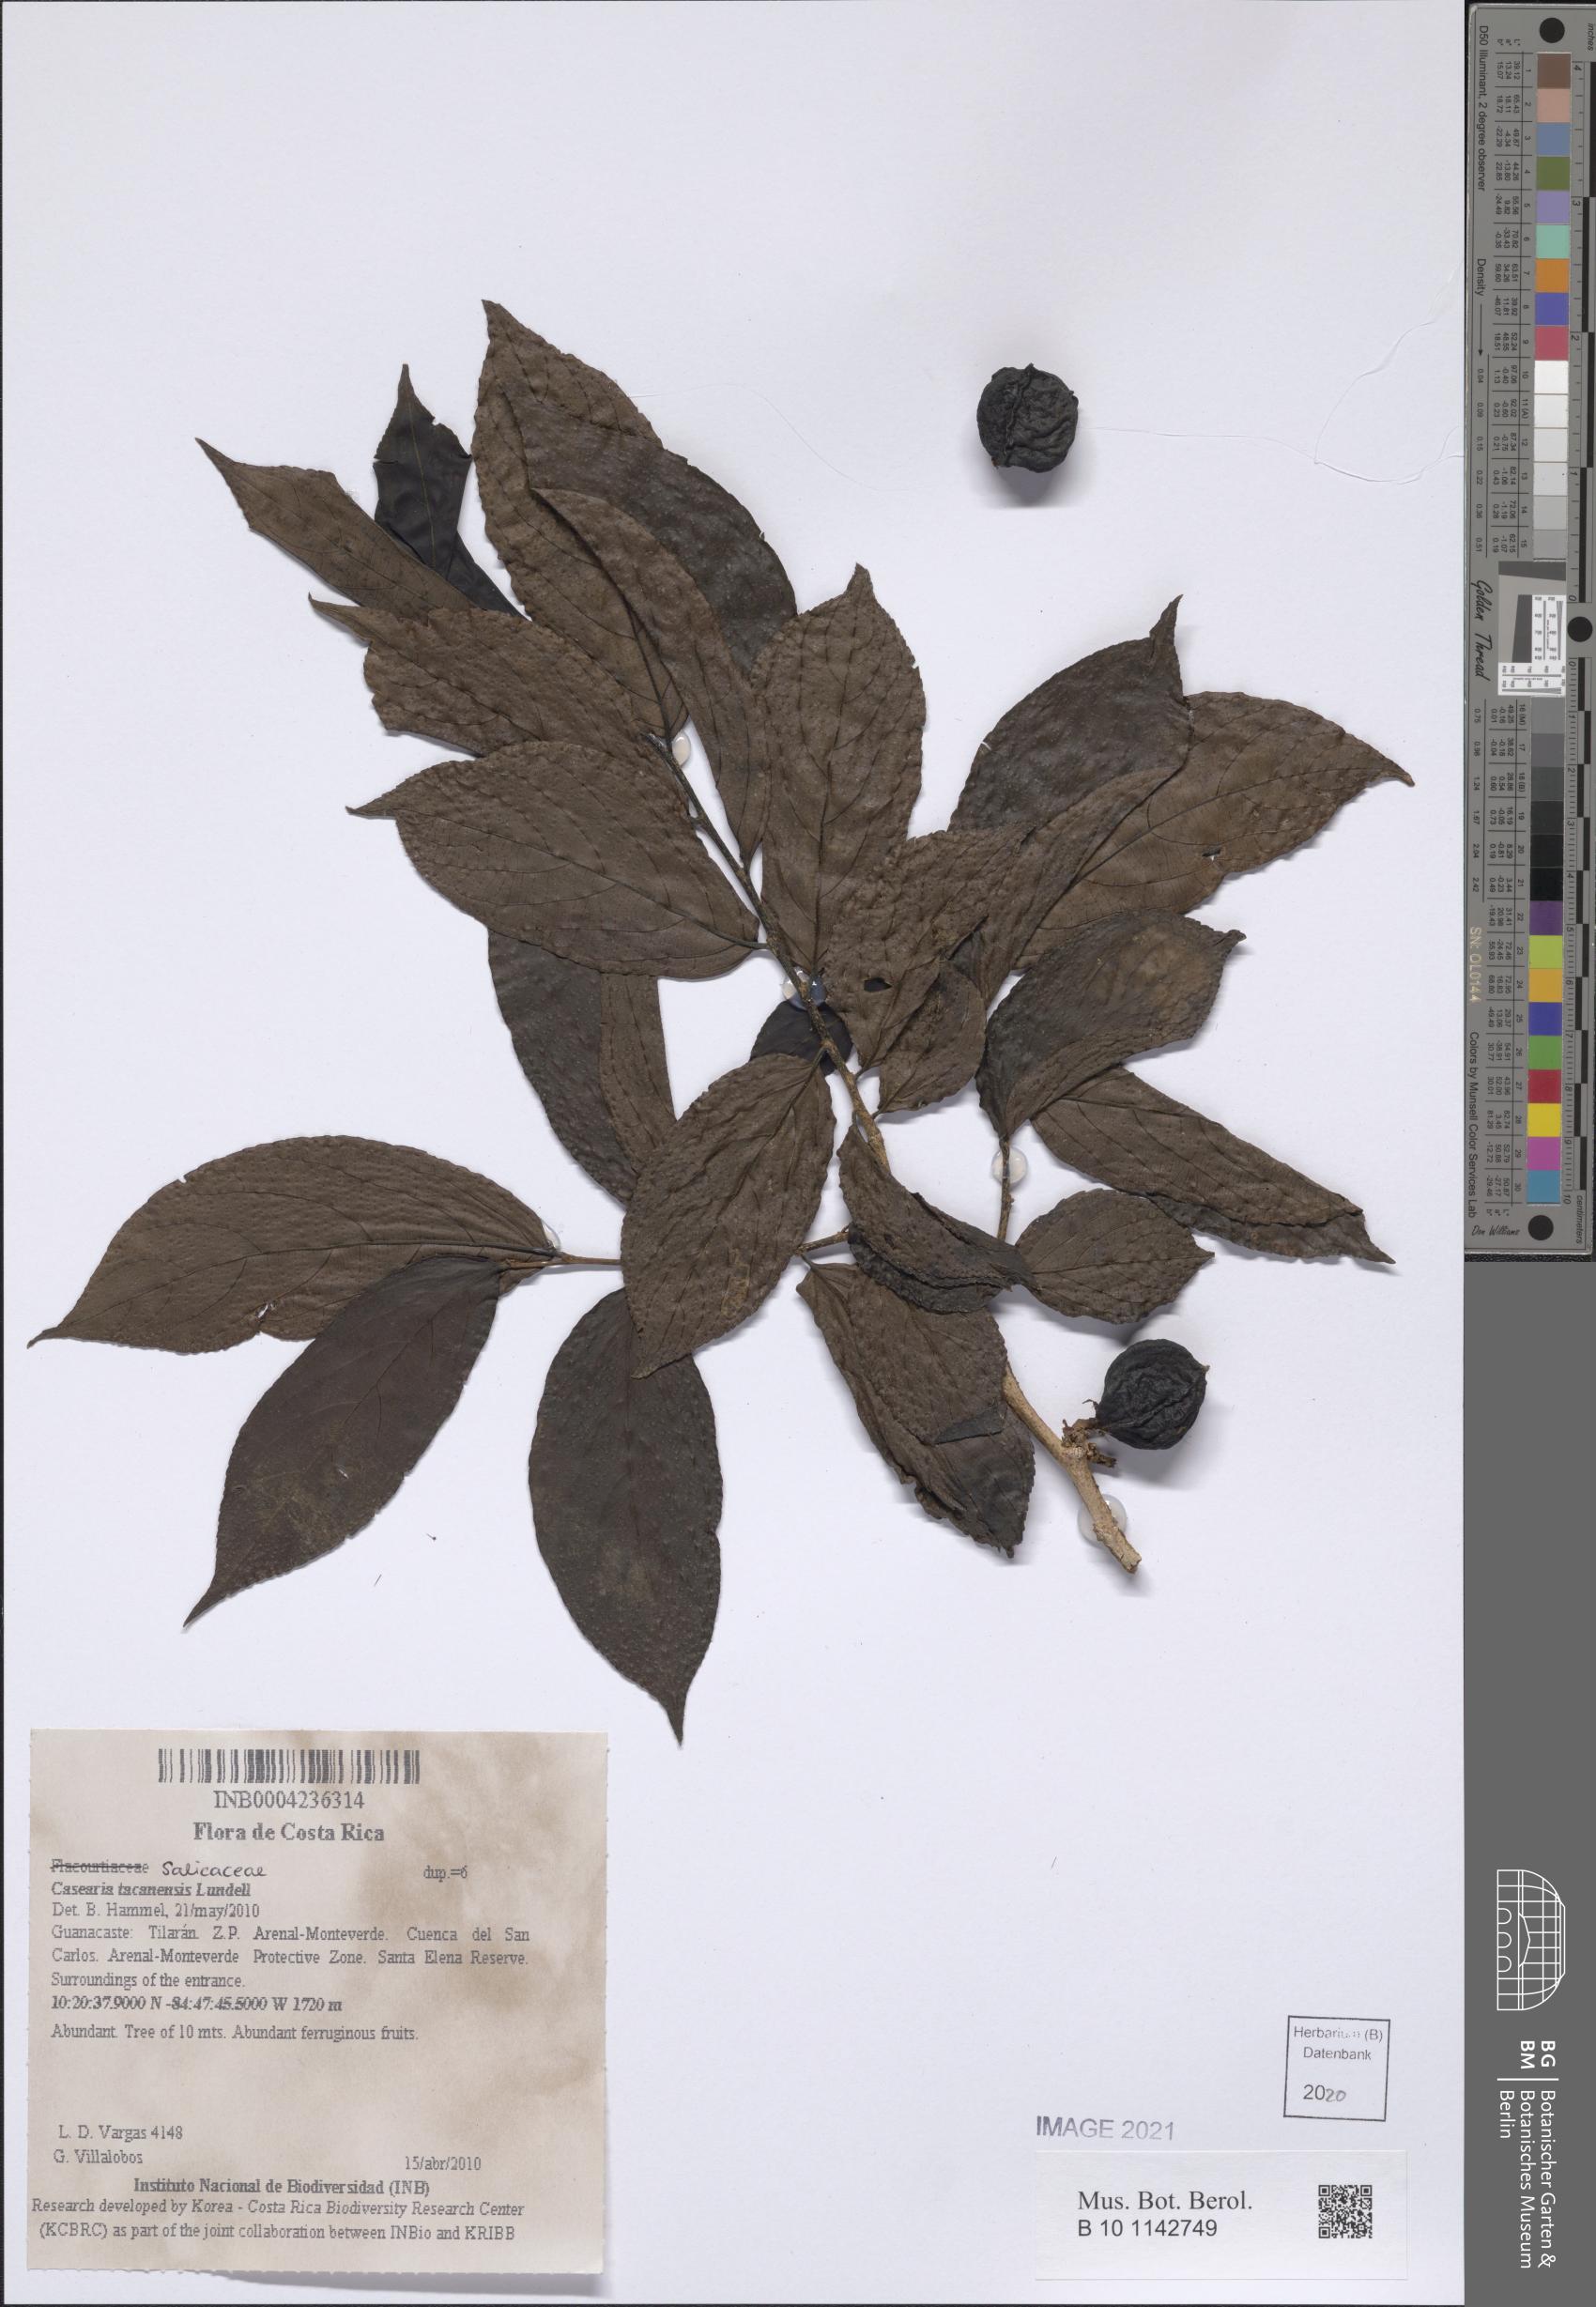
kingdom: Plantae
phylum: Tracheophyta
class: Magnoliopsida
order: Malpighiales
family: Salicaceae
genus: Casearia
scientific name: Casearia tacanensis
